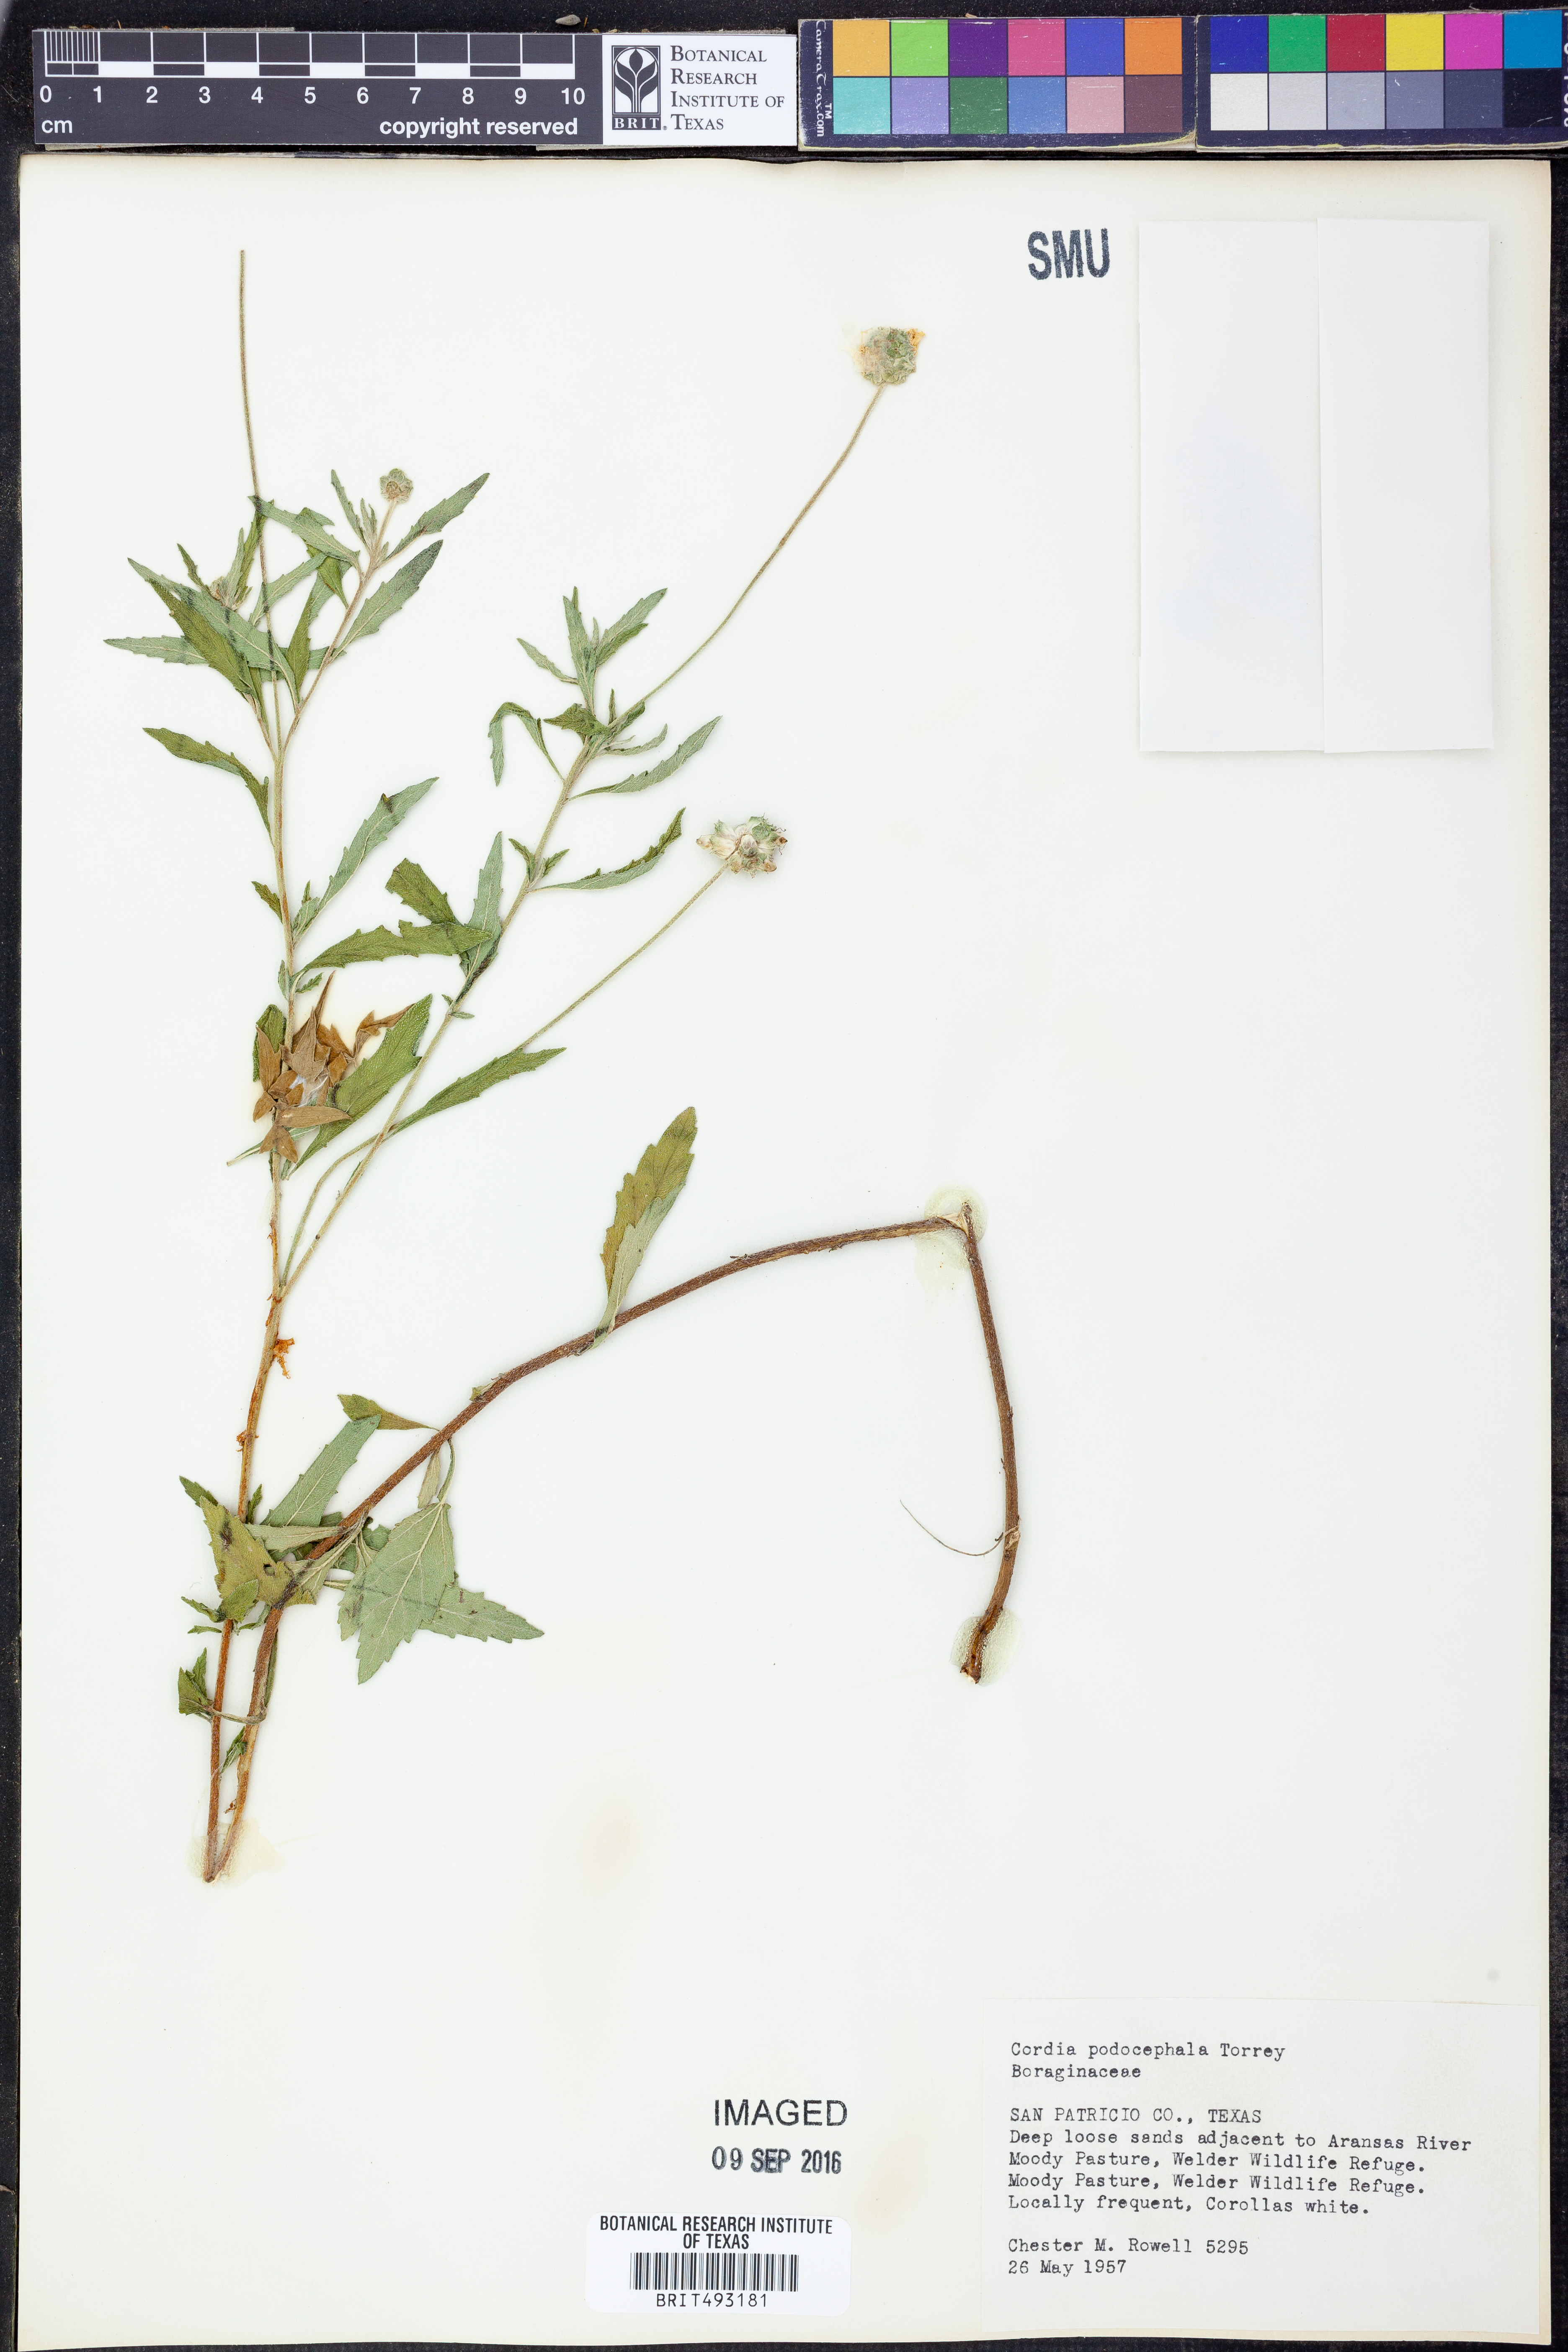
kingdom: Plantae
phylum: Tracheophyta
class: Magnoliopsida
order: Boraginales
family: Cordiaceae
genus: Varronia
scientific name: Varronia podocephala
